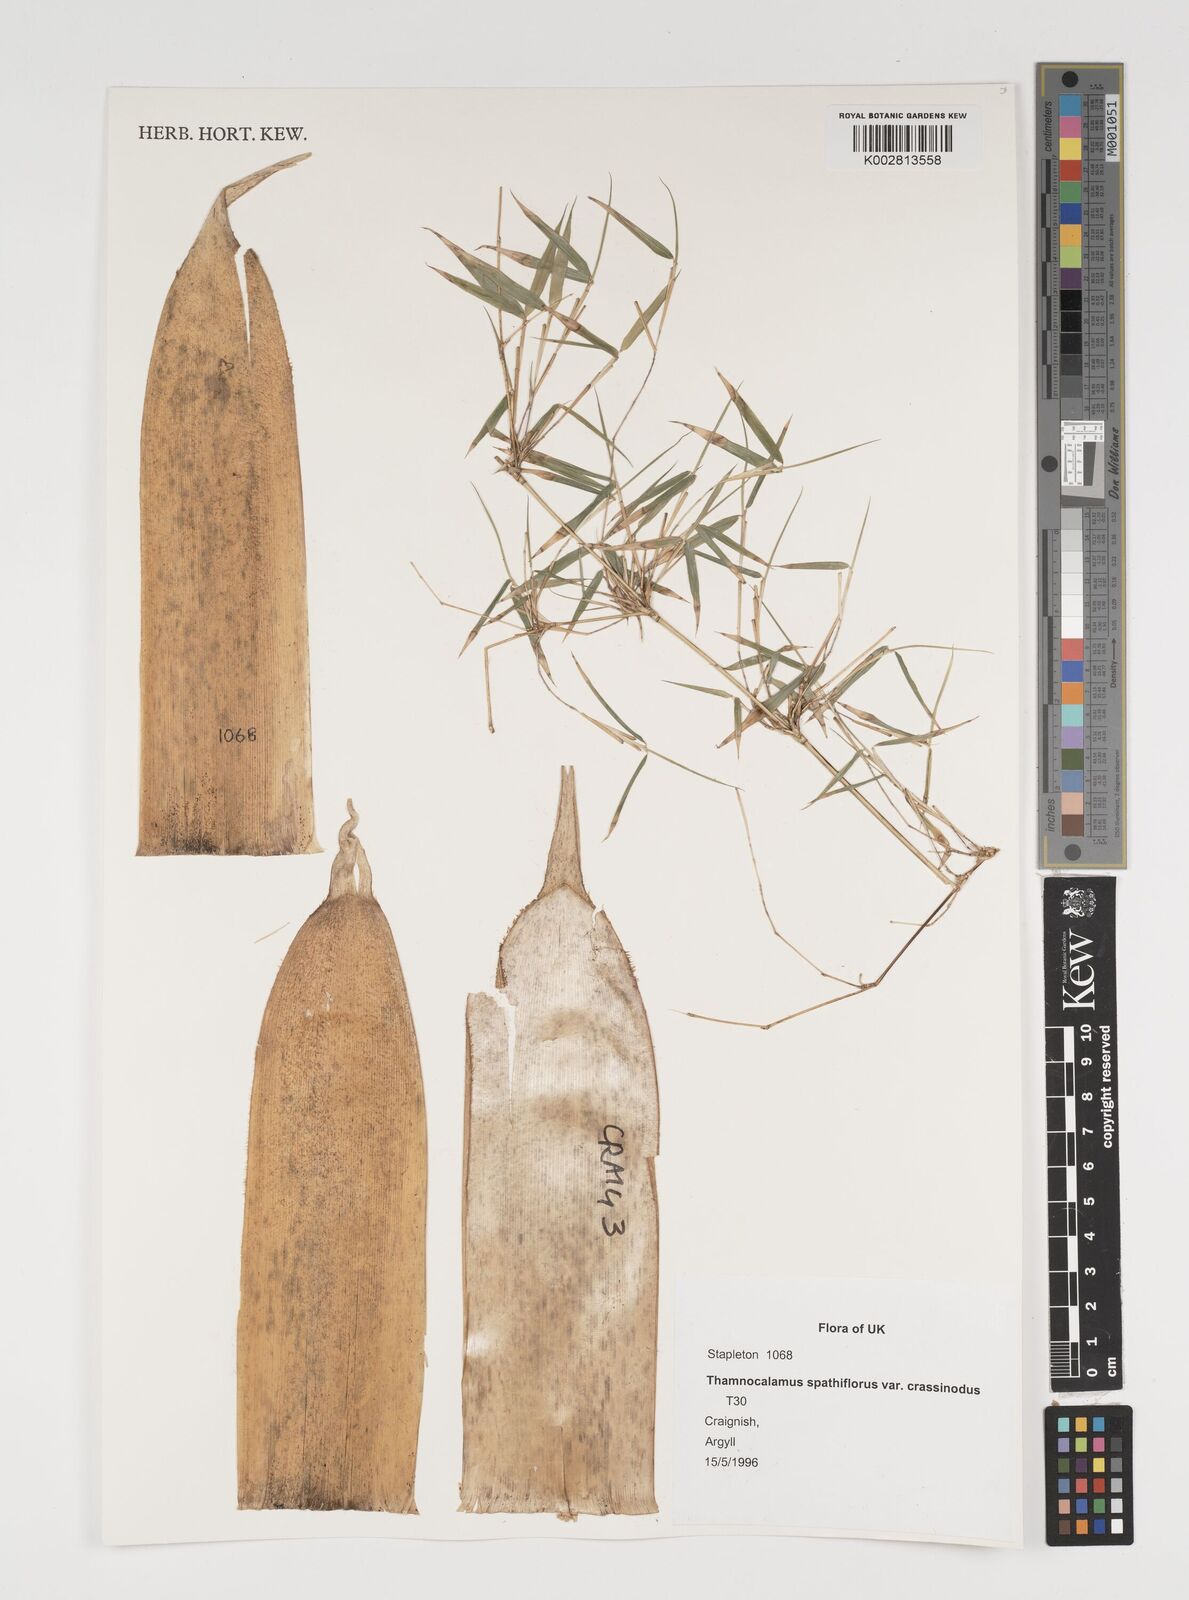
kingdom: Plantae
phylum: Tracheophyta
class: Liliopsida
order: Poales
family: Poaceae
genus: Fargesia
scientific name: Fargesia murielae
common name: Umbrella bamboo
